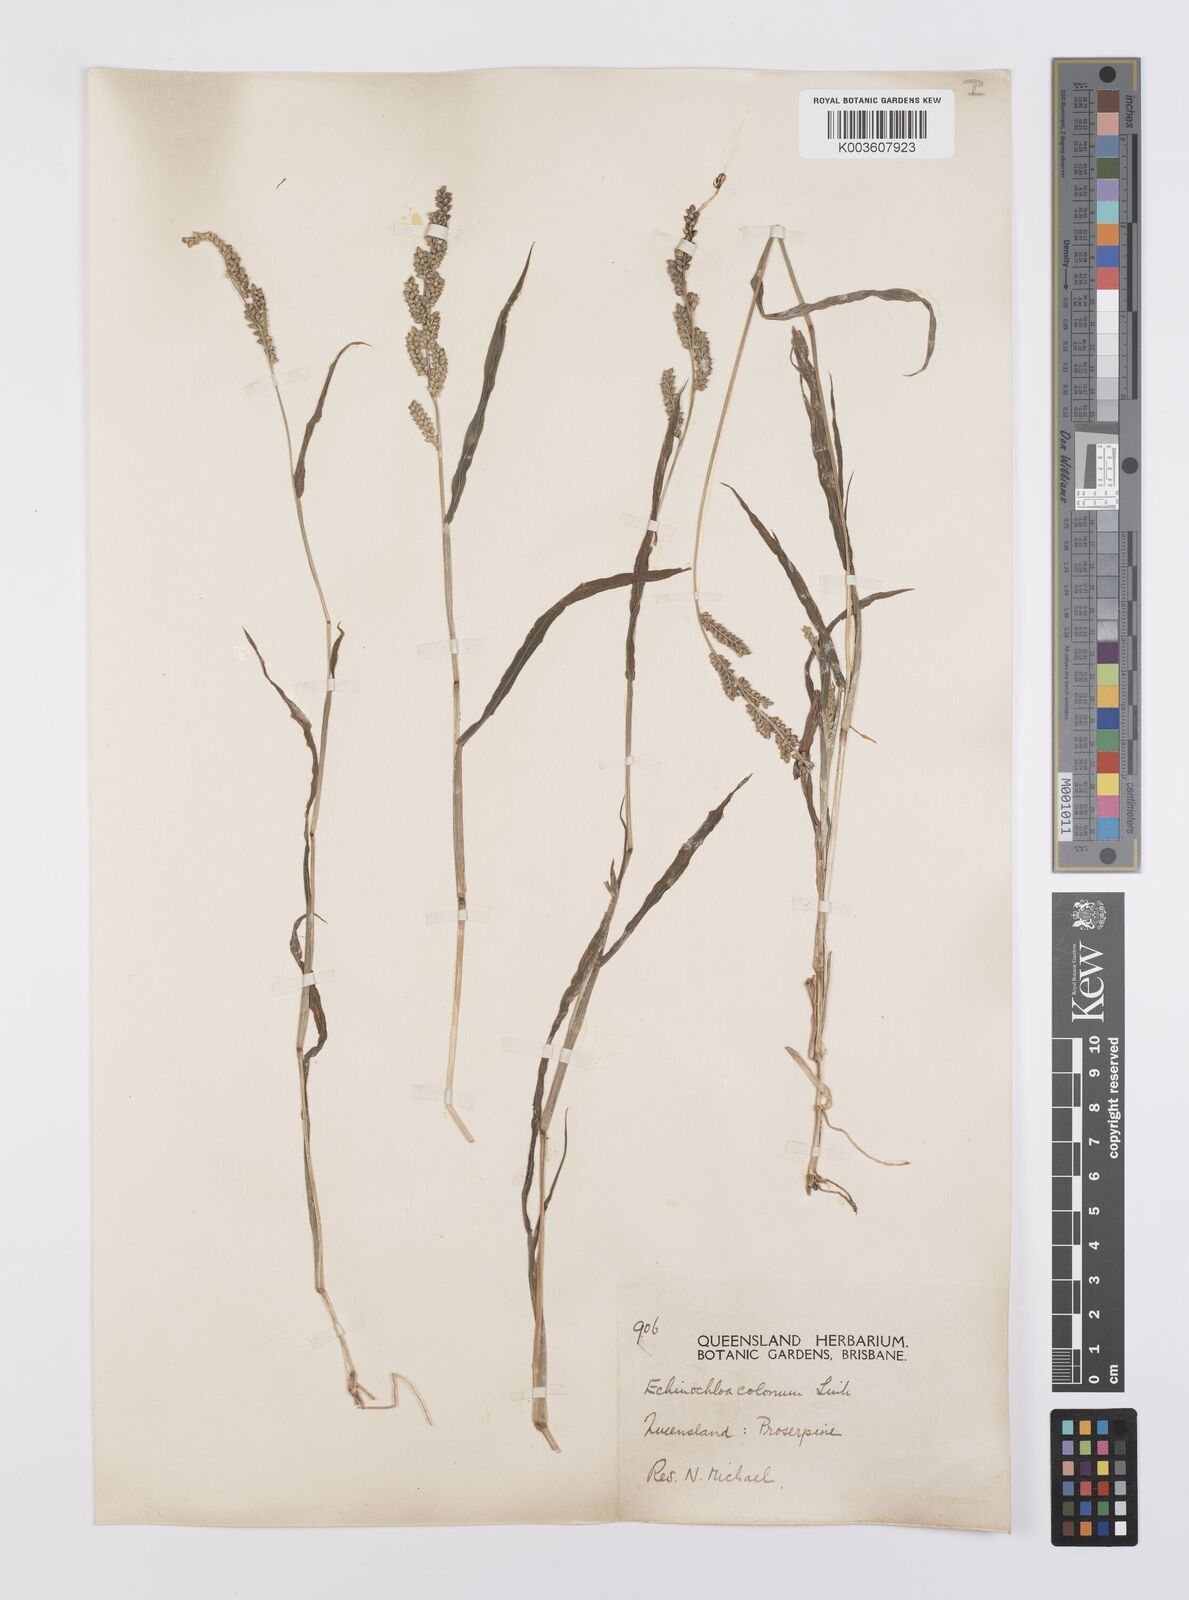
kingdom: Plantae
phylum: Tracheophyta
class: Liliopsida
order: Poales
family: Poaceae
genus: Echinochloa
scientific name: Echinochloa colonum
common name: Jungle rice
